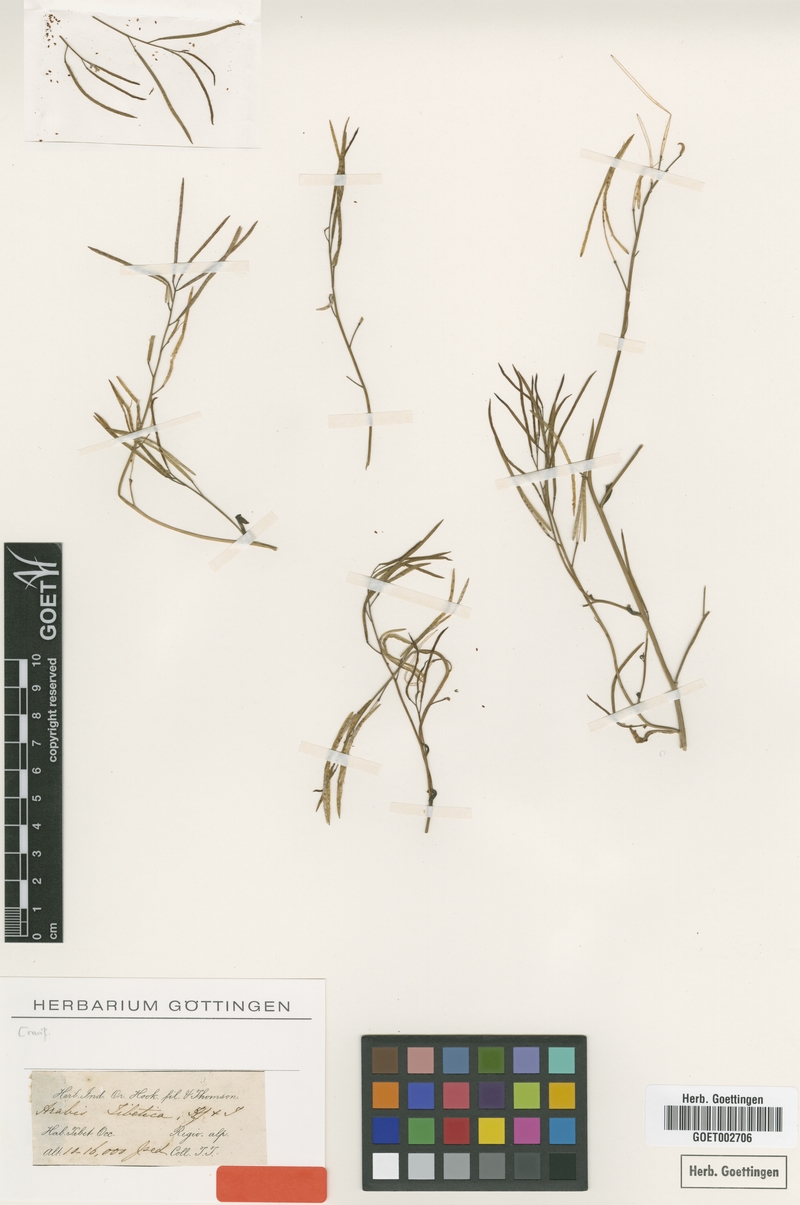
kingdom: Plantae
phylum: Tracheophyta
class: Magnoliopsida
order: Brassicales
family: Brassicaceae
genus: Crucihimalaya
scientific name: Crucihimalaya tibetica
